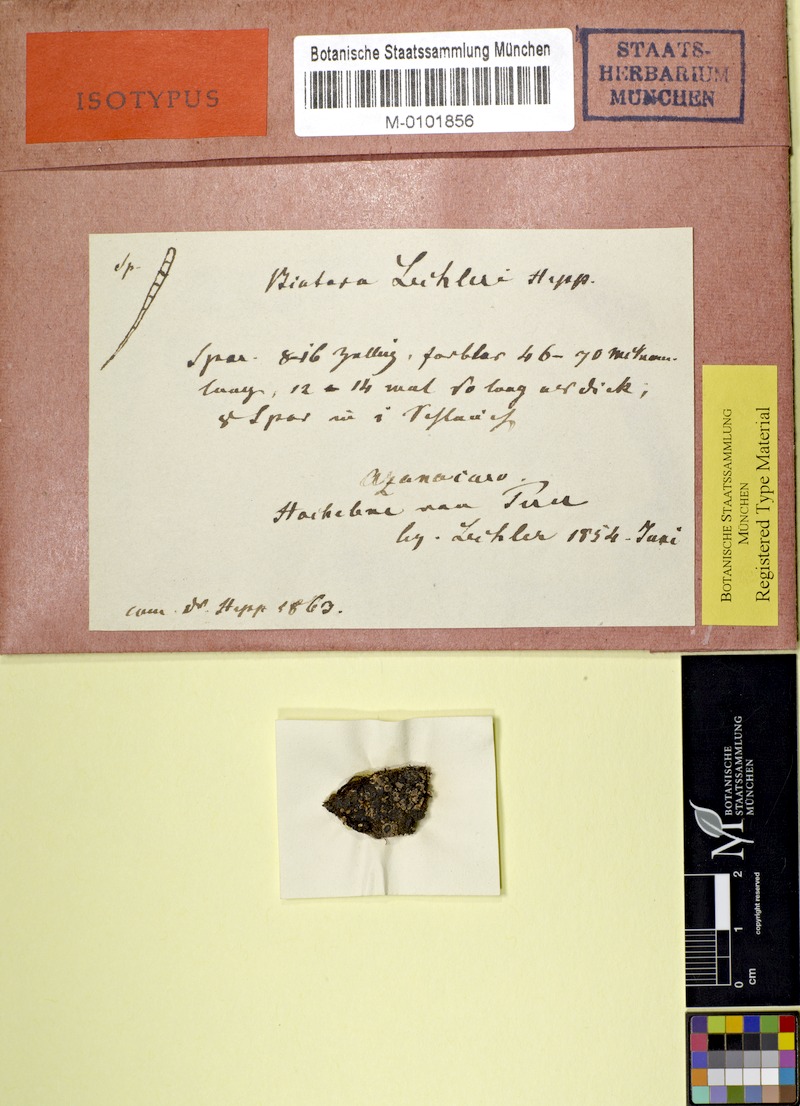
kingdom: Fungi
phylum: Ascomycota
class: Lecanoromycetes
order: Lecanorales
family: Ramalinaceae
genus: Bacidia
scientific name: Bacidia
